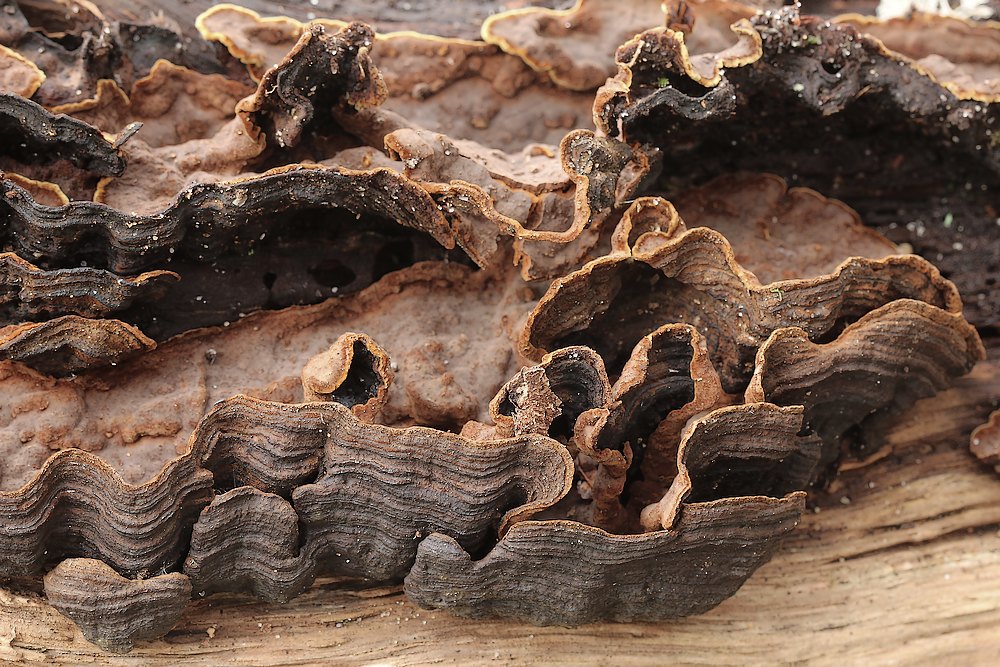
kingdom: Fungi
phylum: Basidiomycota
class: Agaricomycetes
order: Hymenochaetales
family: Hymenochaetaceae
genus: Hymenochaete
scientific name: Hymenochaete rubiginosa
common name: stiv ruslædersvamp
